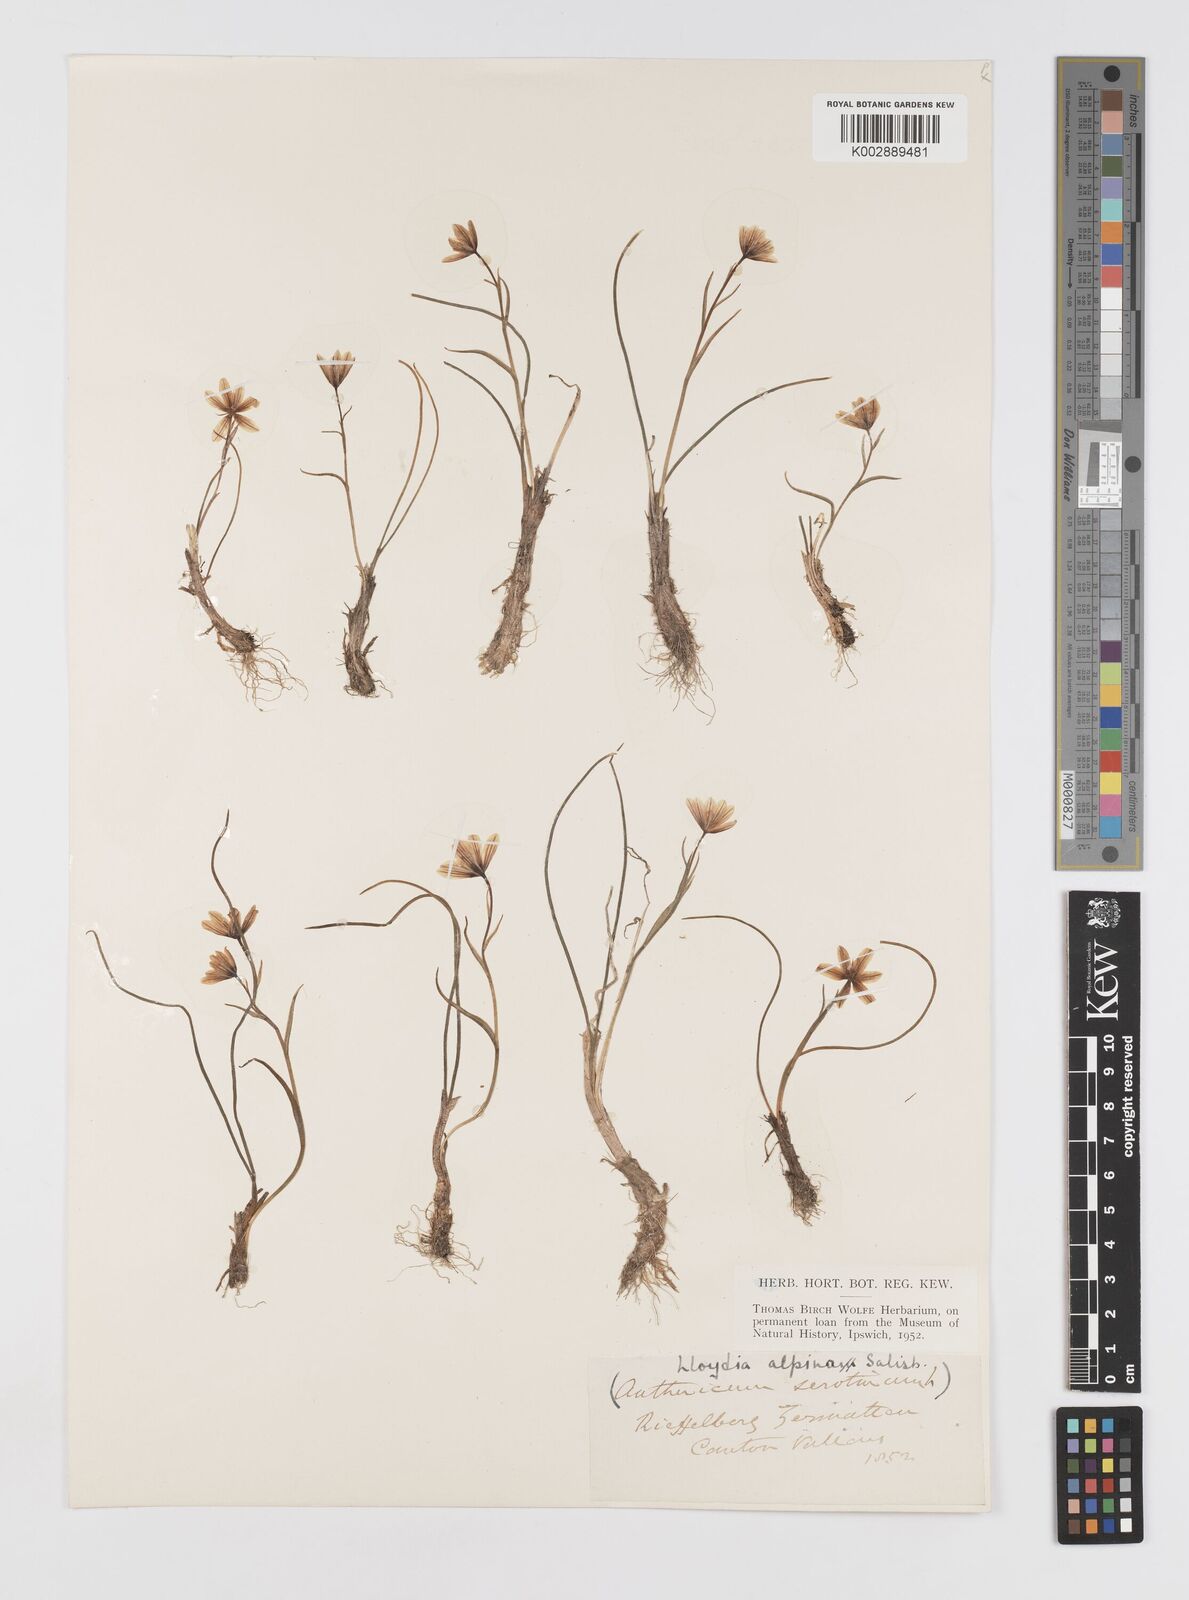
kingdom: Plantae
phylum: Tracheophyta
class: Liliopsida
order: Liliales
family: Liliaceae
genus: Gagea
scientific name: Gagea
